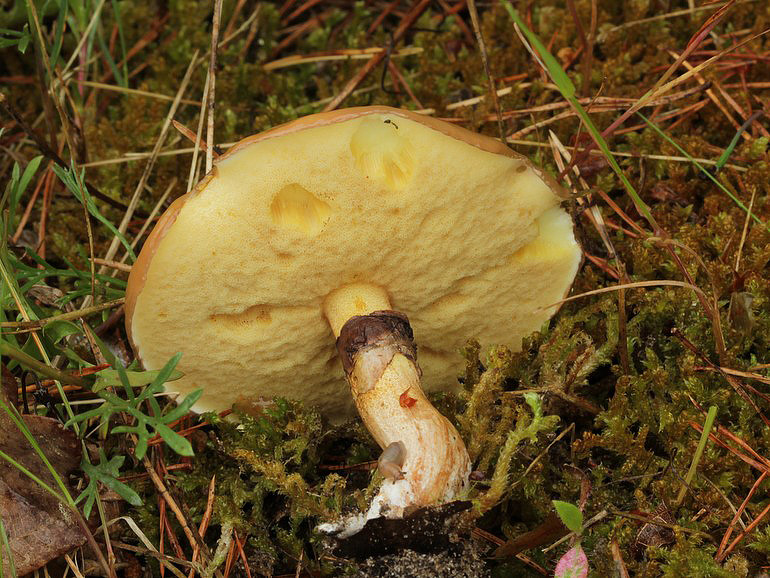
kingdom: Fungi
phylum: Basidiomycota
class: Agaricomycetes
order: Boletales
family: Suillaceae
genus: Suillus
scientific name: Suillus luteus
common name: brungul slimrørhat
